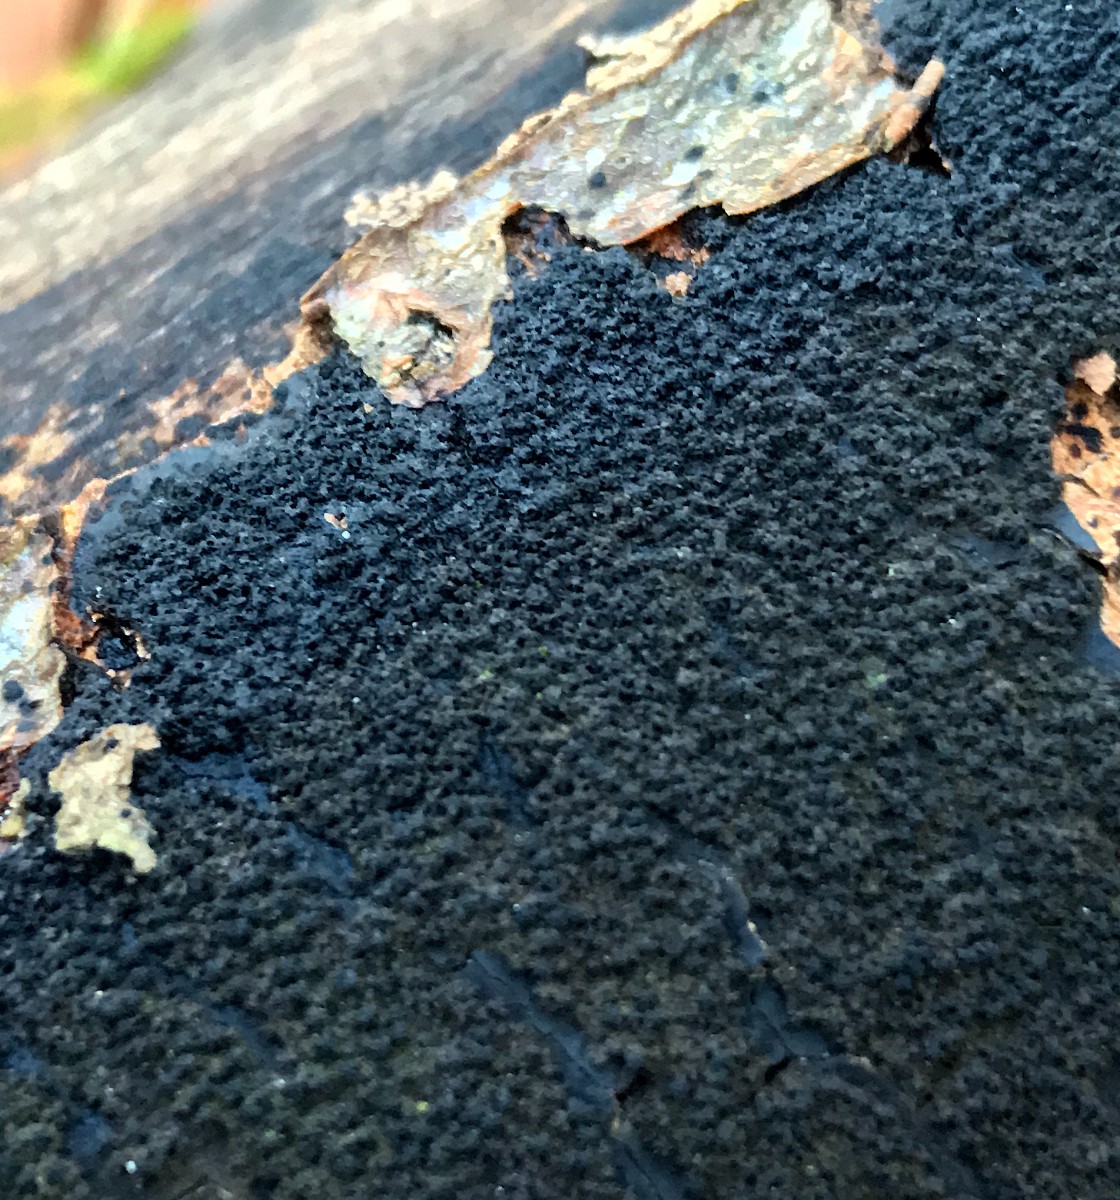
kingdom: Fungi
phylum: Ascomycota
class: Sordariomycetes
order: Xylariales
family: Diatrypaceae
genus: Eutypa
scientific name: Eutypa spinosa
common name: grov kulskorpe
